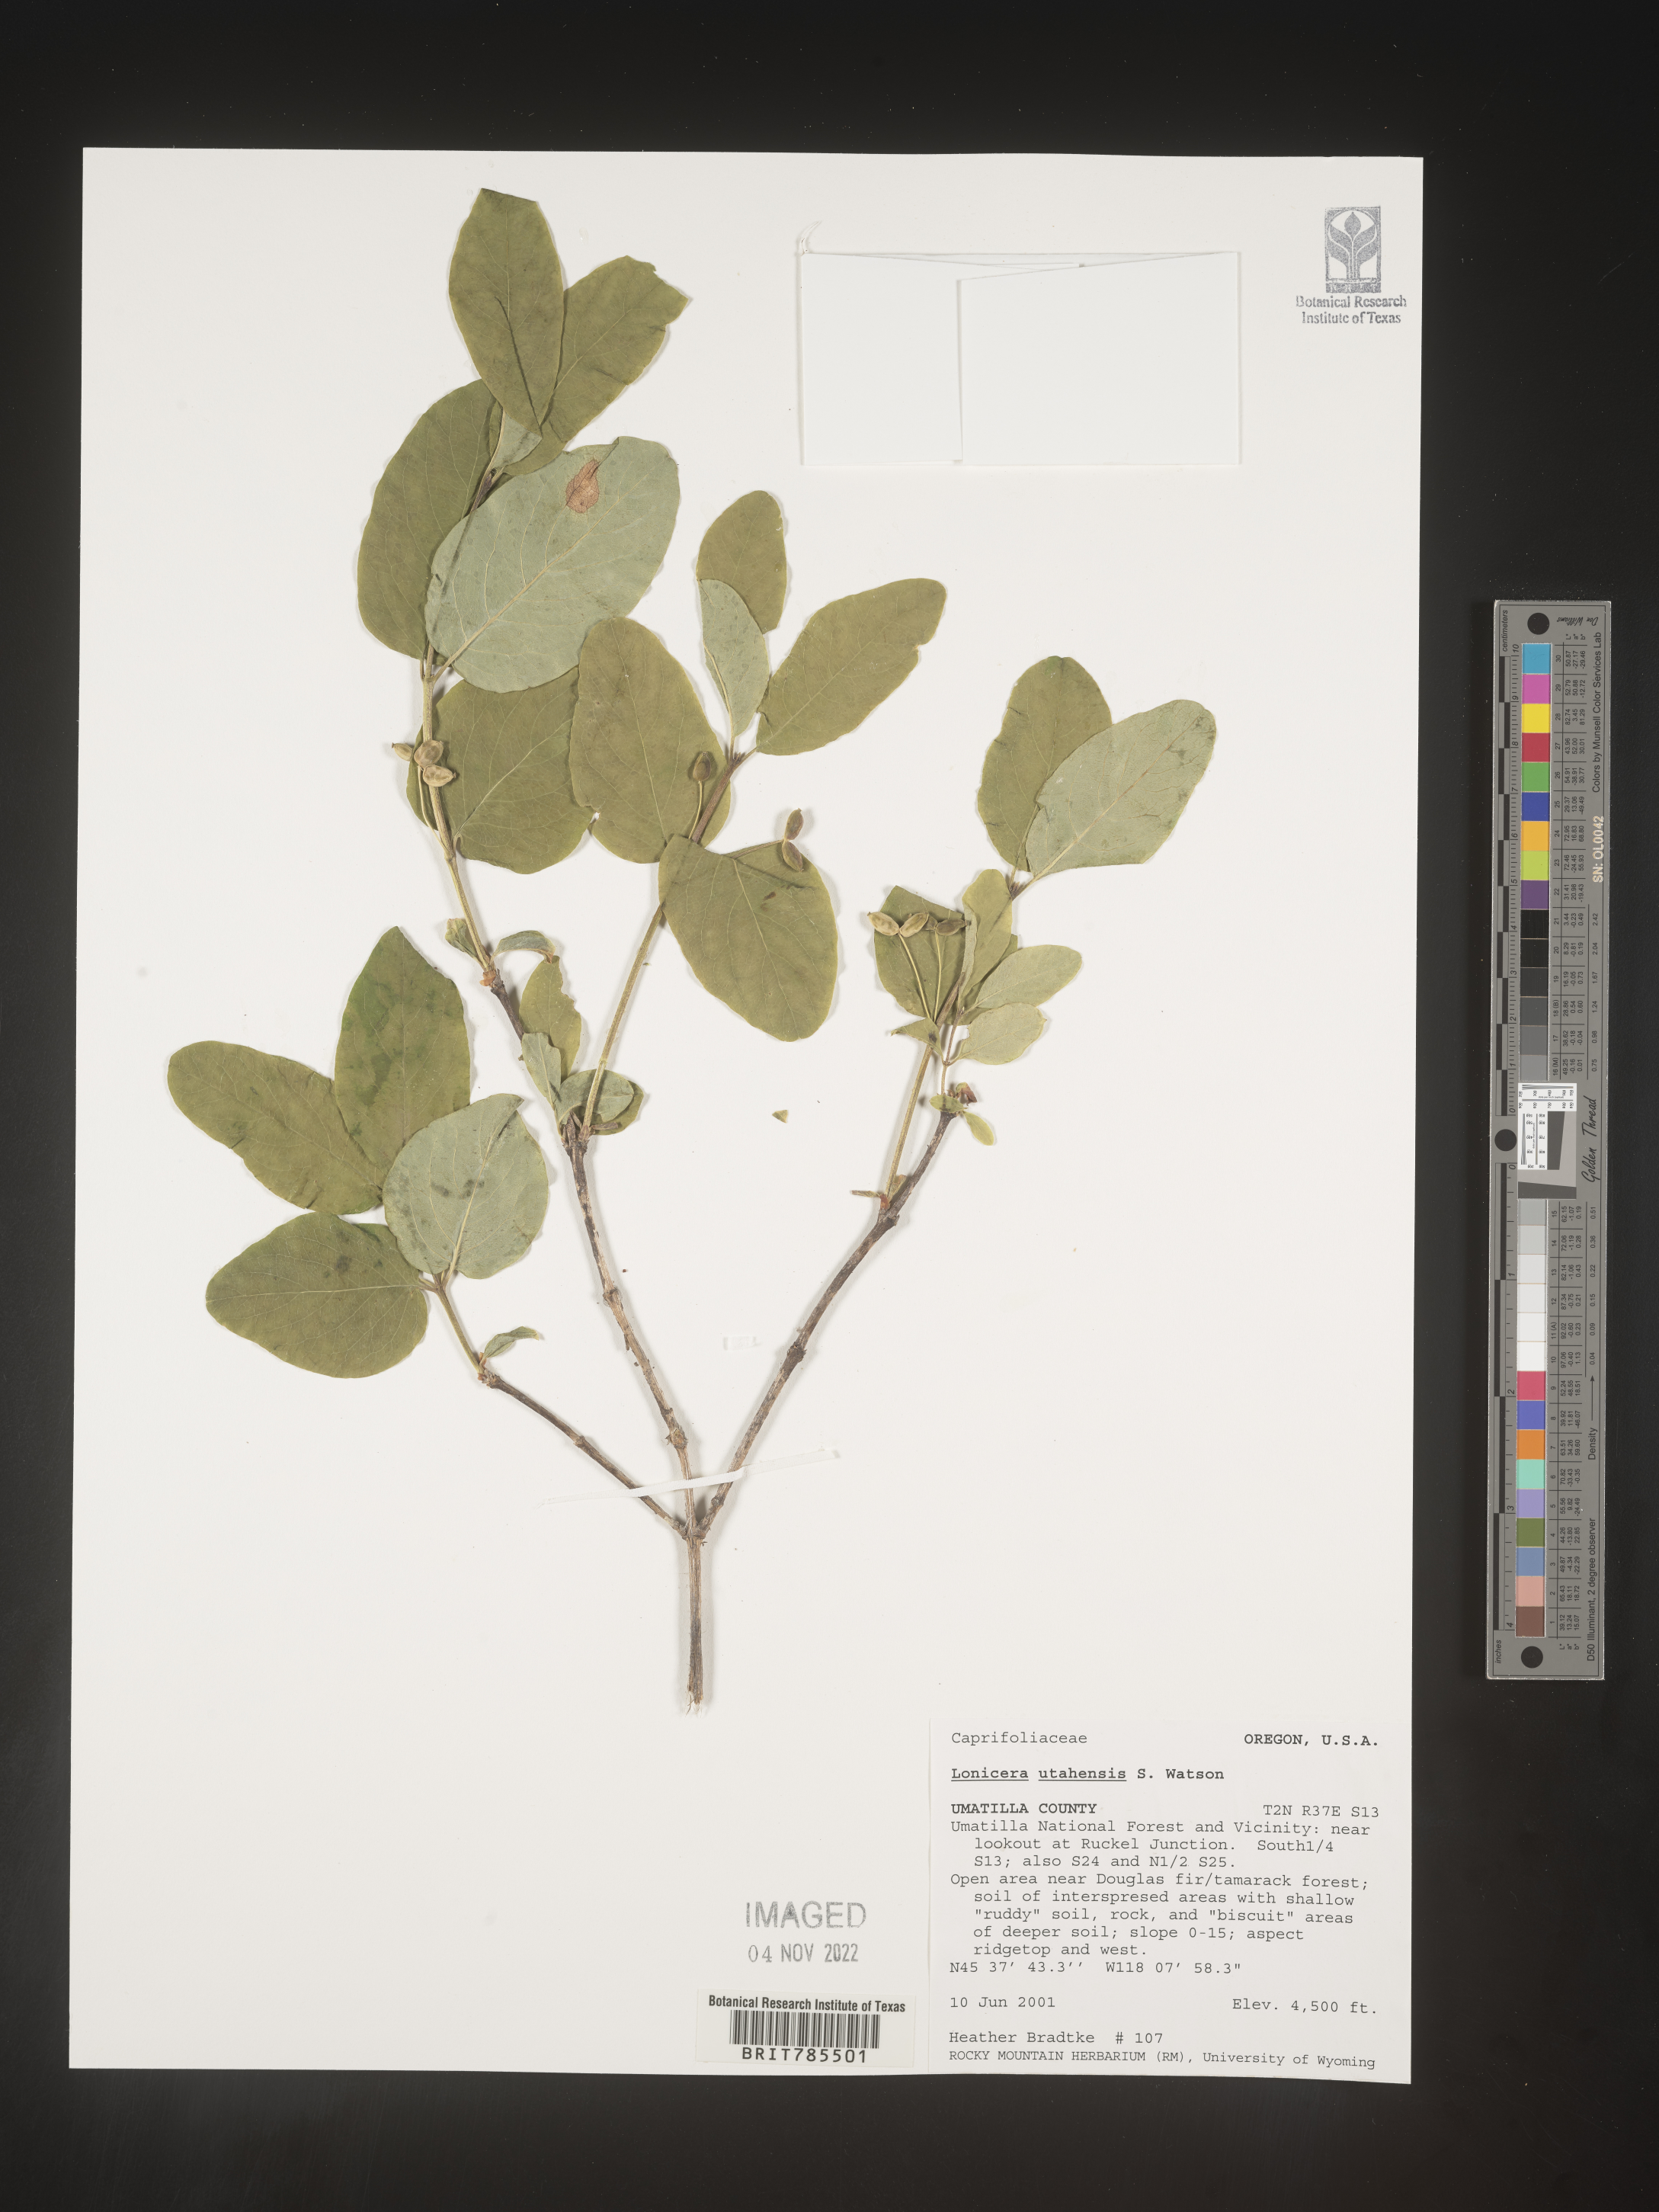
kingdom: Plantae
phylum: Tracheophyta
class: Magnoliopsida
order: Dipsacales
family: Caprifoliaceae
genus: Lonicera
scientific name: Lonicera utahensis
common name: Utah honeysuckle
